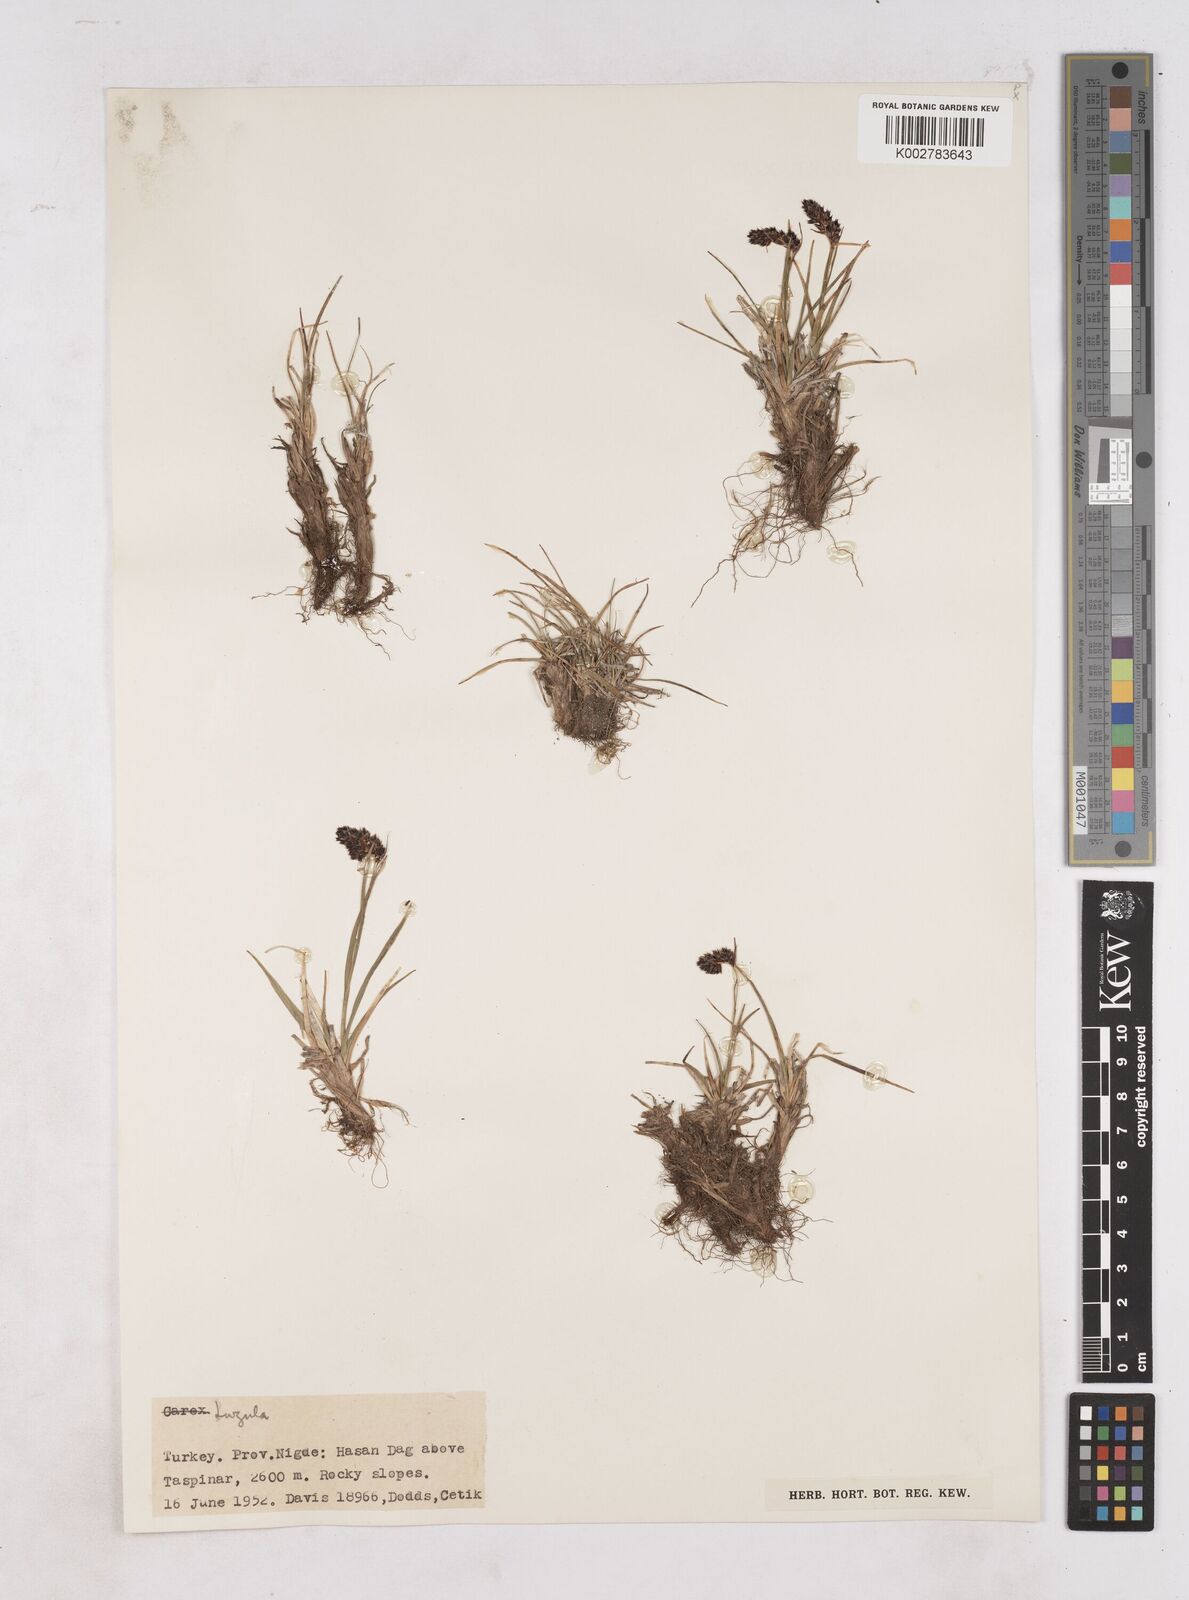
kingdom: Plantae
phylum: Tracheophyta
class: Liliopsida
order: Poales
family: Juncaceae
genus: Luzula
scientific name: Luzula spicata
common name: Spiked wood-rush
